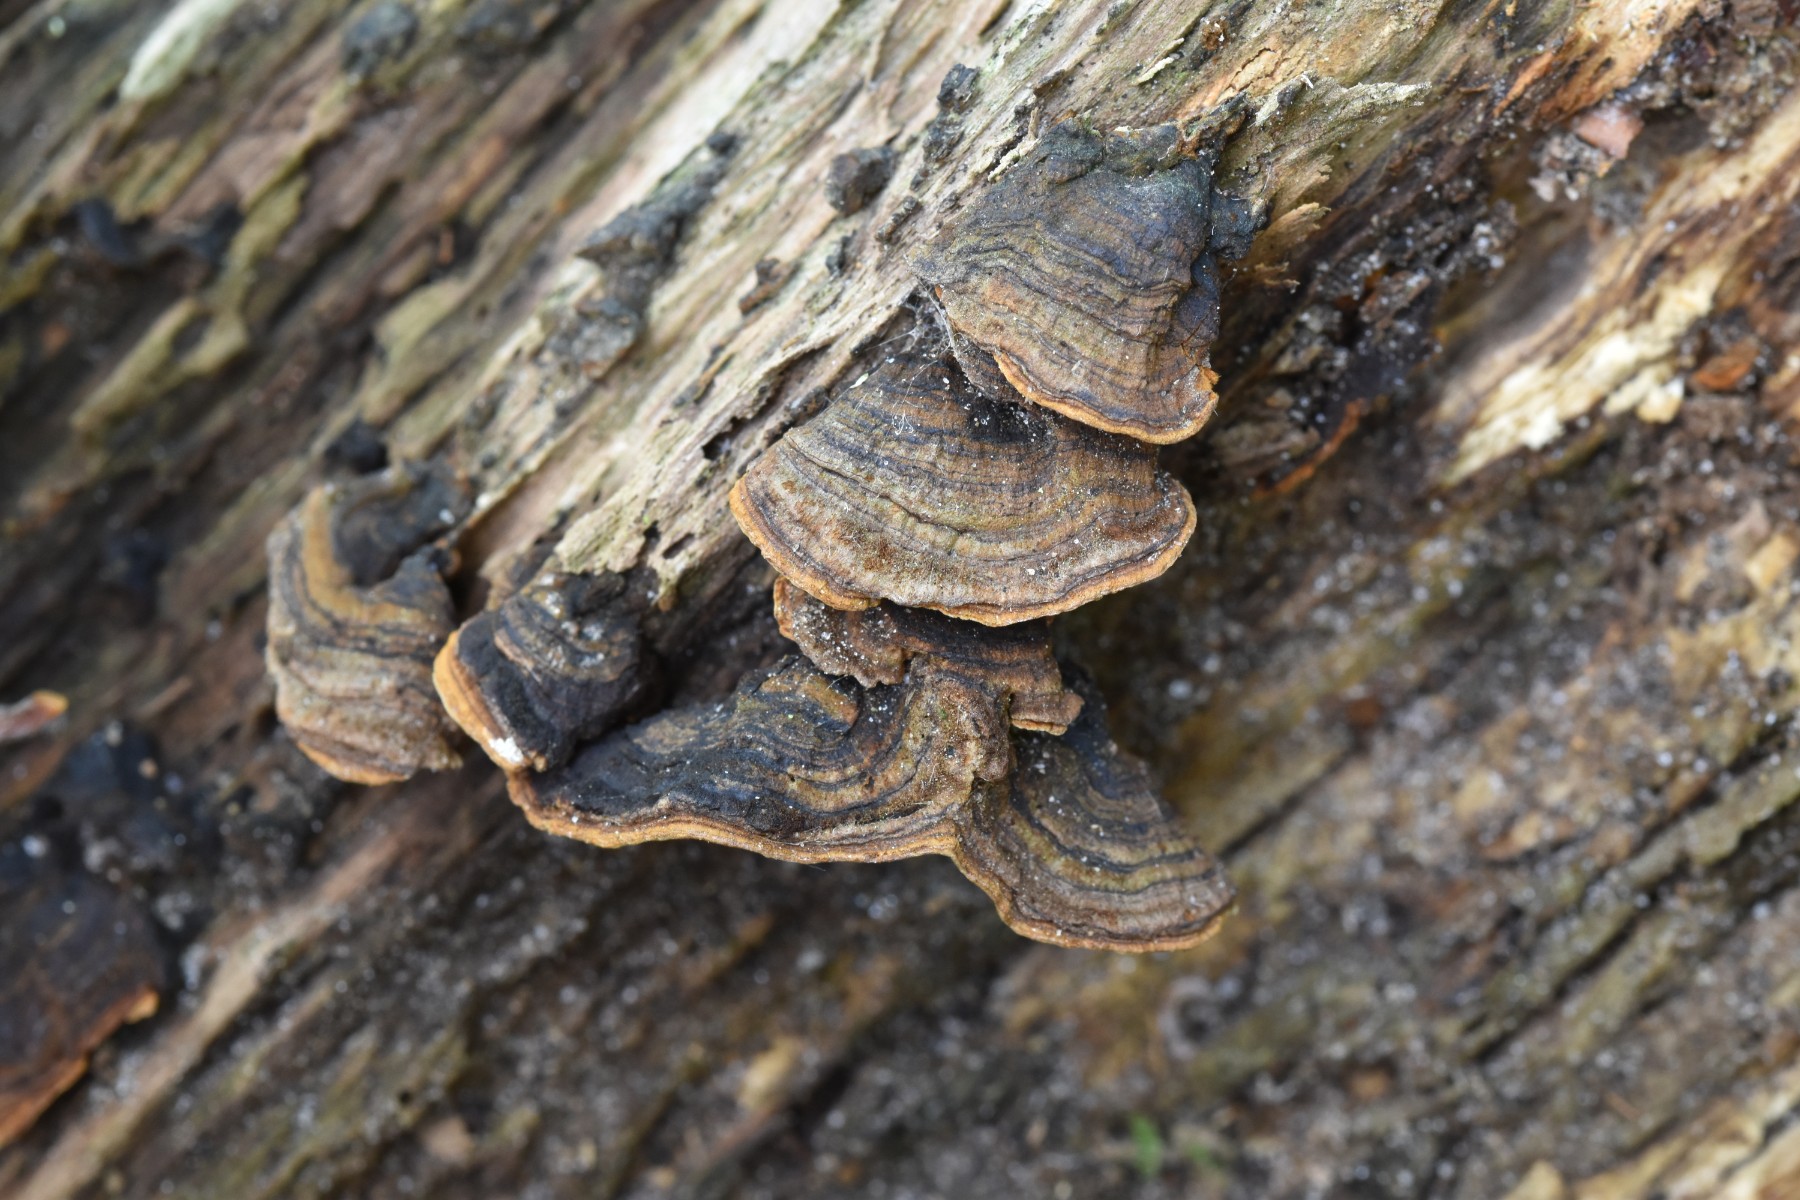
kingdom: Fungi
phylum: Basidiomycota
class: Agaricomycetes
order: Hymenochaetales
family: Hymenochaetaceae
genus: Hymenochaete
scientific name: Hymenochaete rubiginosa
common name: stiv ruslædersvamp
